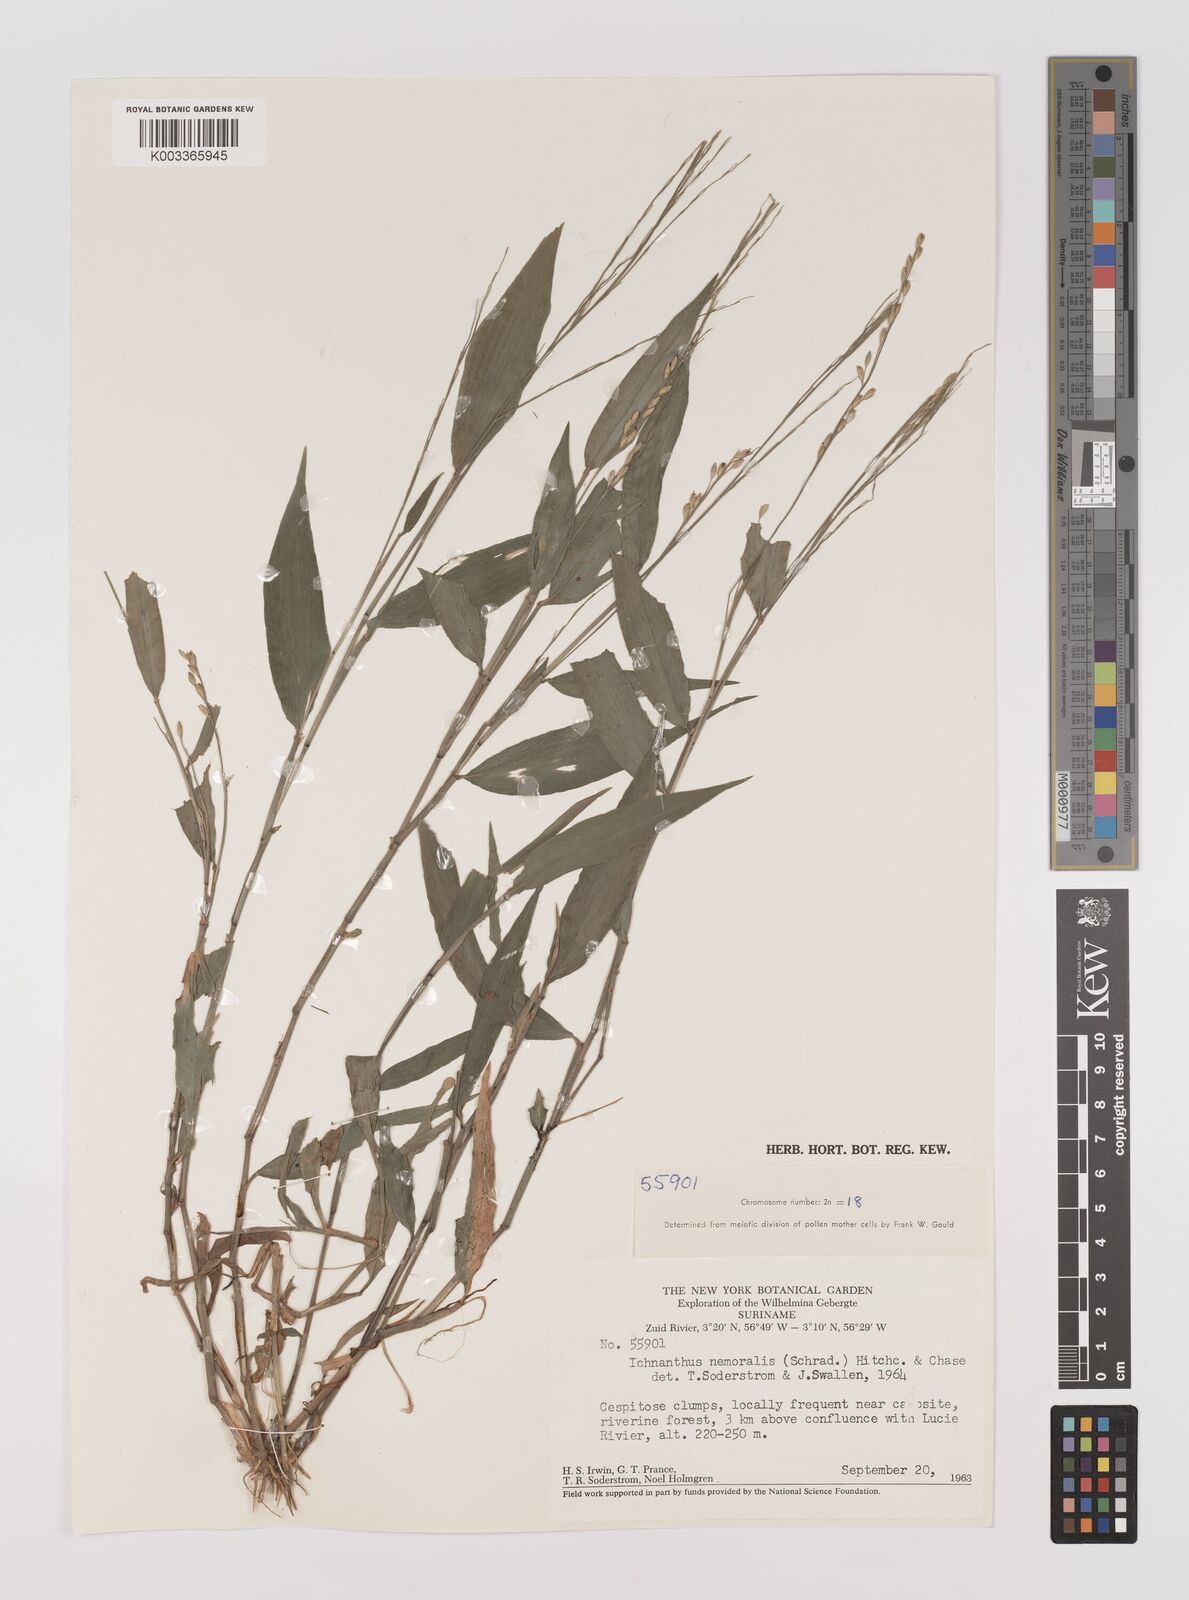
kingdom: Plantae
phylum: Tracheophyta
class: Liliopsida
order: Poales
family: Poaceae
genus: Ichnanthus
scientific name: Ichnanthus nemoralis
